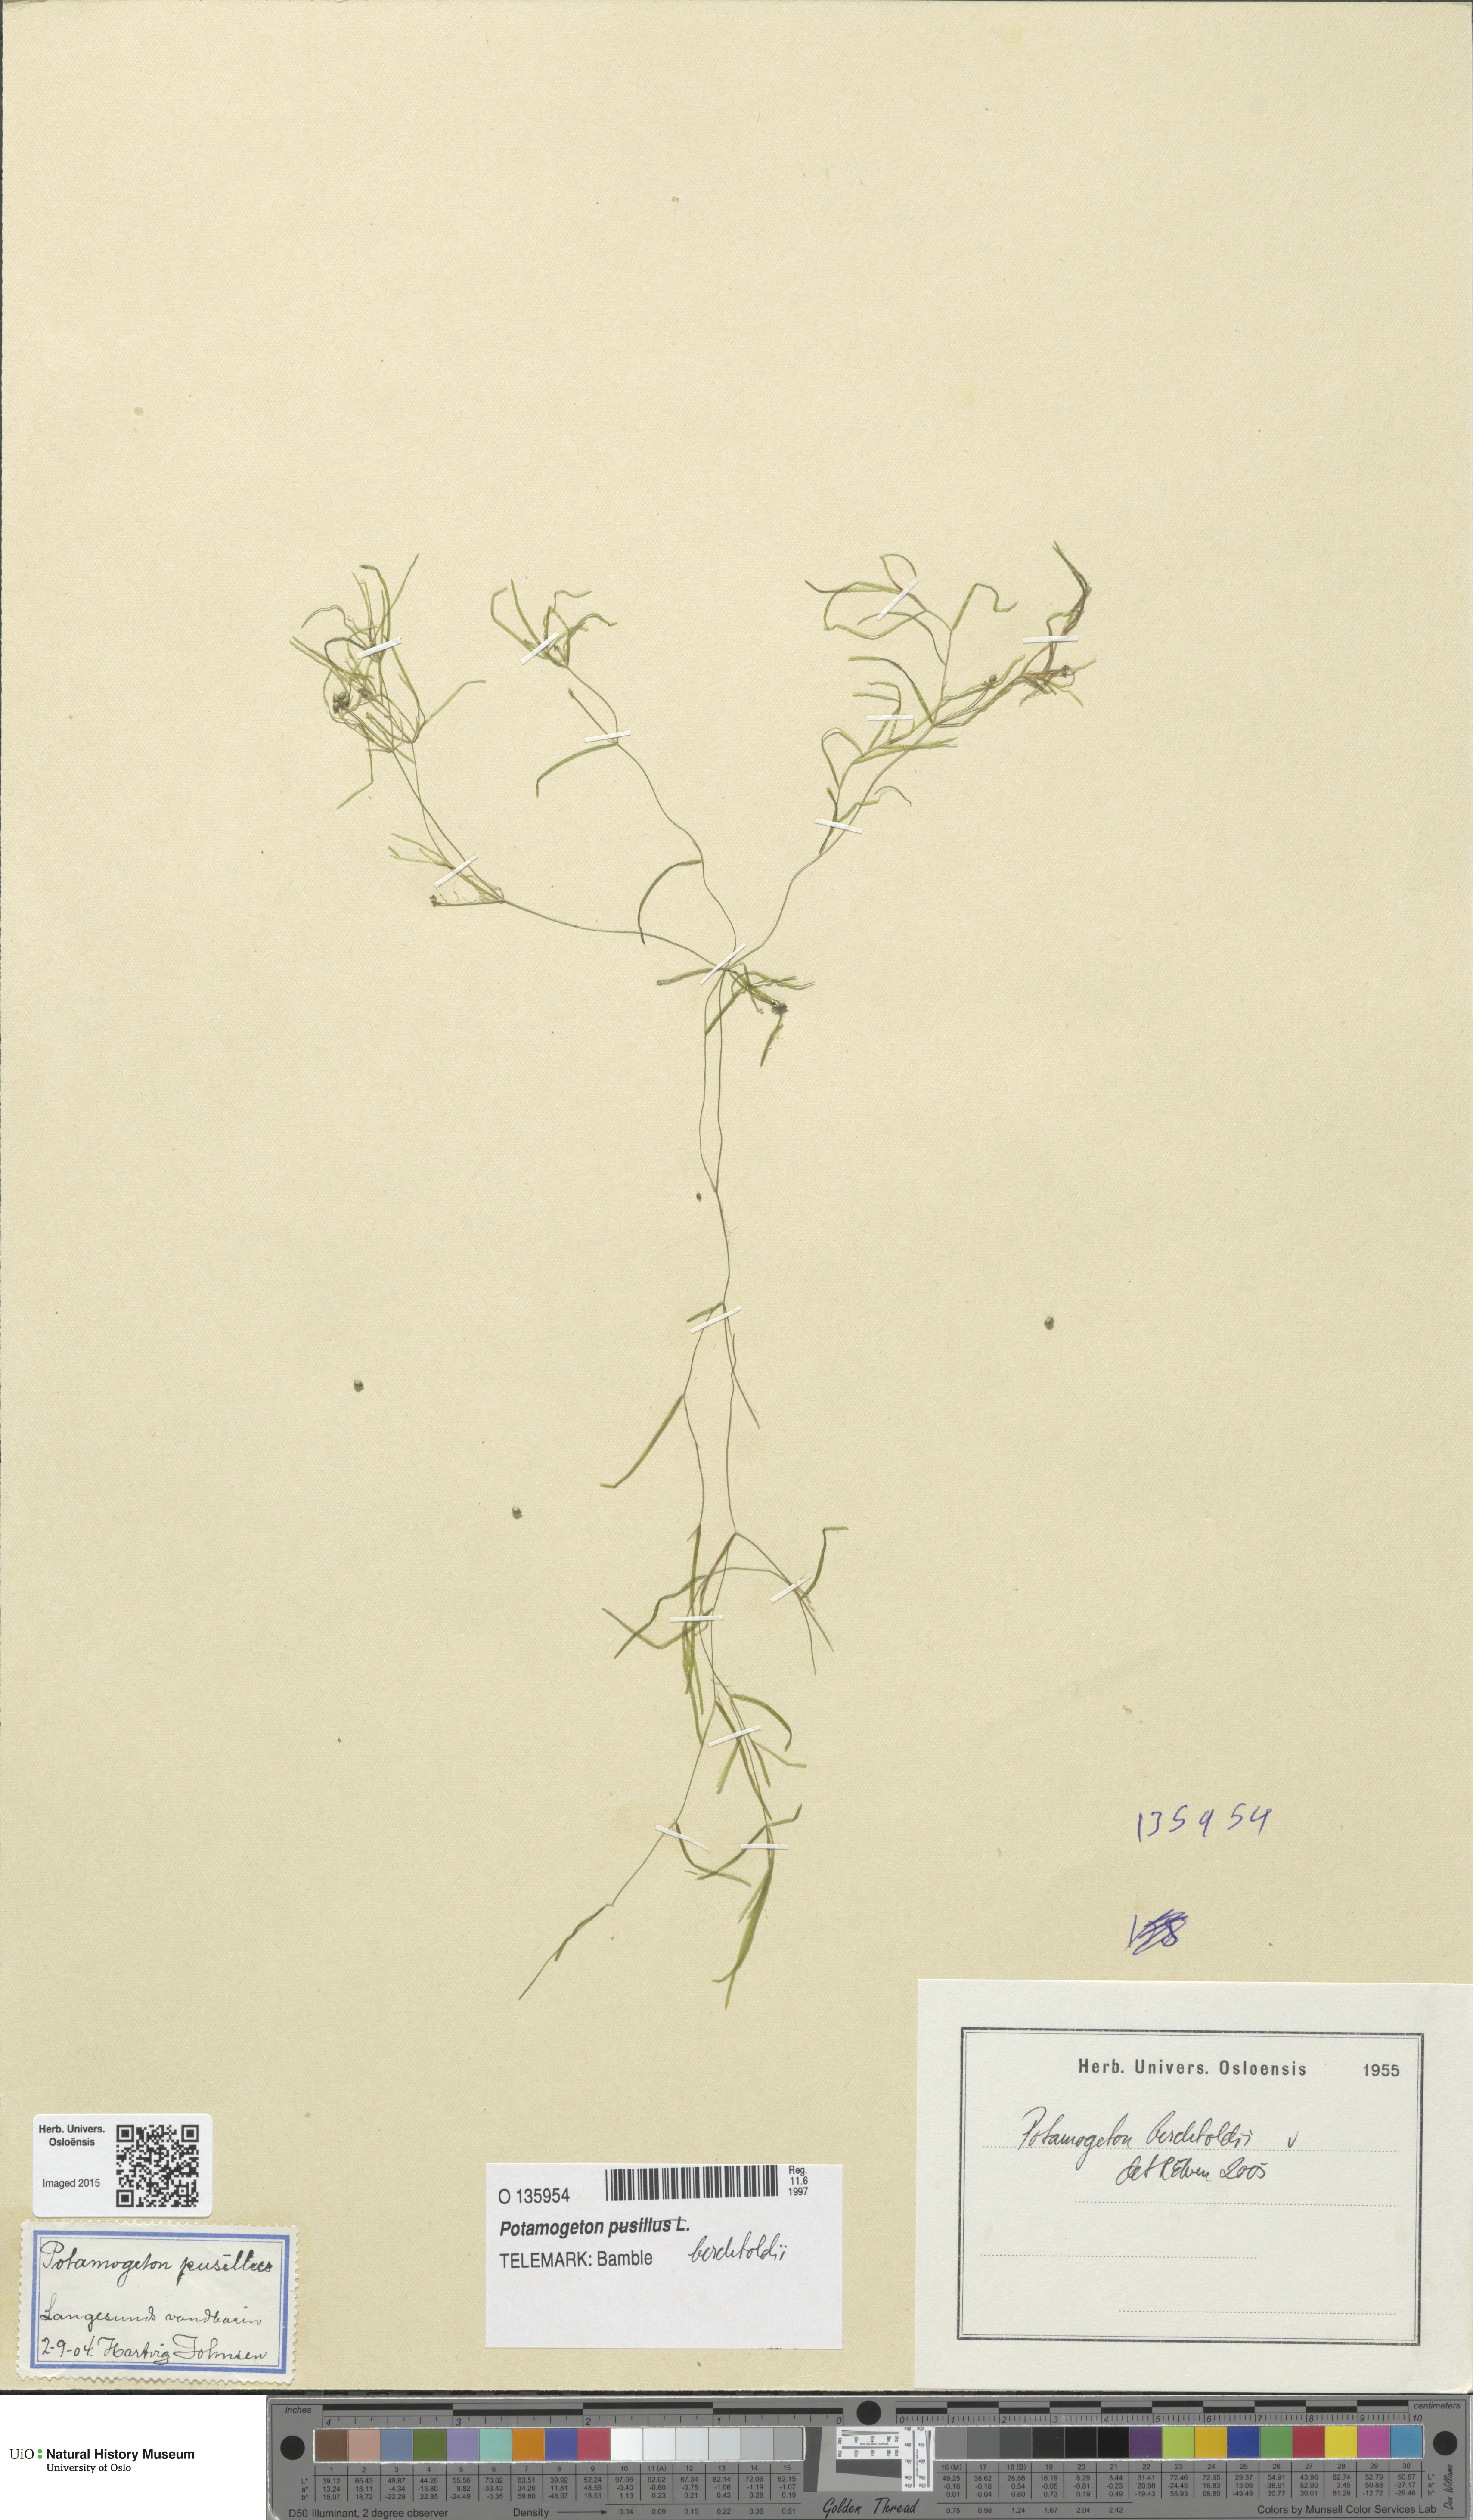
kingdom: Plantae
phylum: Tracheophyta
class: Liliopsida
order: Alismatales
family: Potamogetonaceae
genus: Potamogeton
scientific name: Potamogeton berchtoldii
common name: Small pondweed
